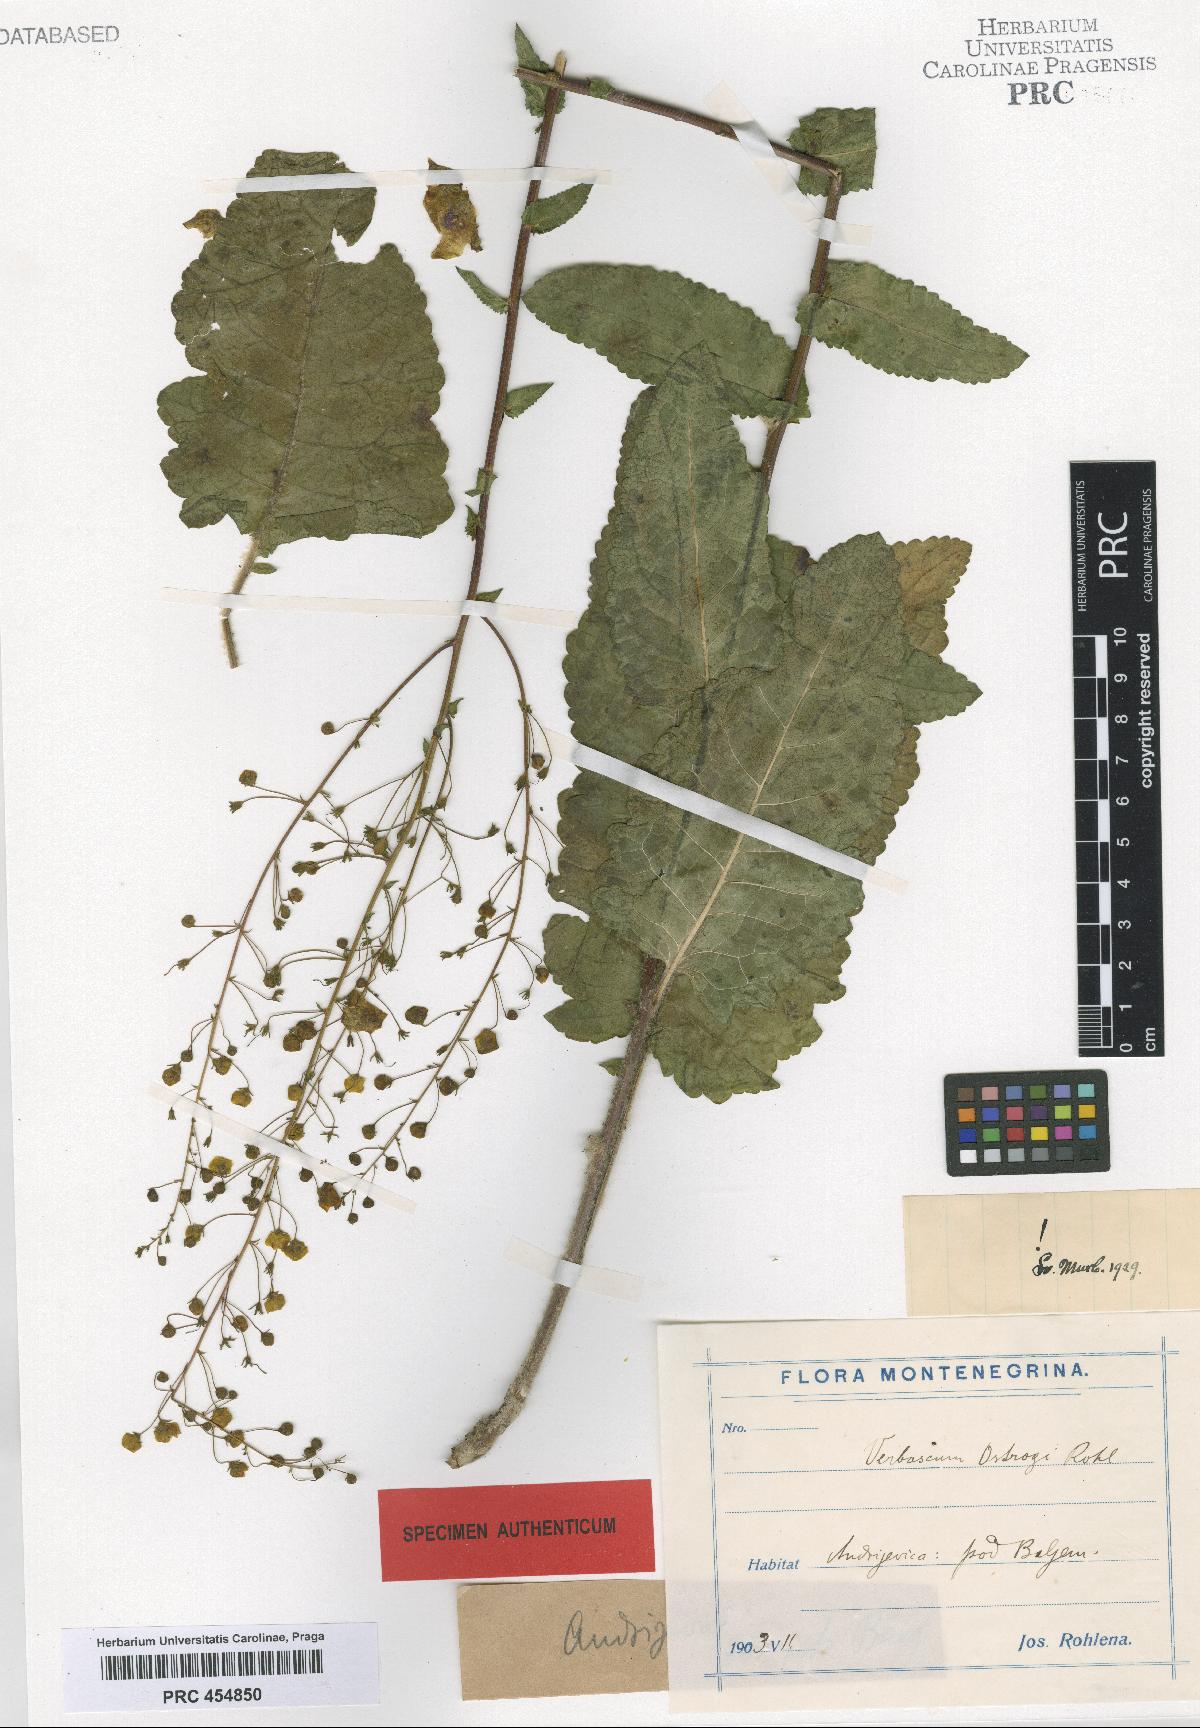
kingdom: Plantae
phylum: Tracheophyta
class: Magnoliopsida
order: Lamiales
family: Scrophulariaceae
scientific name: Scrophulariaceae
